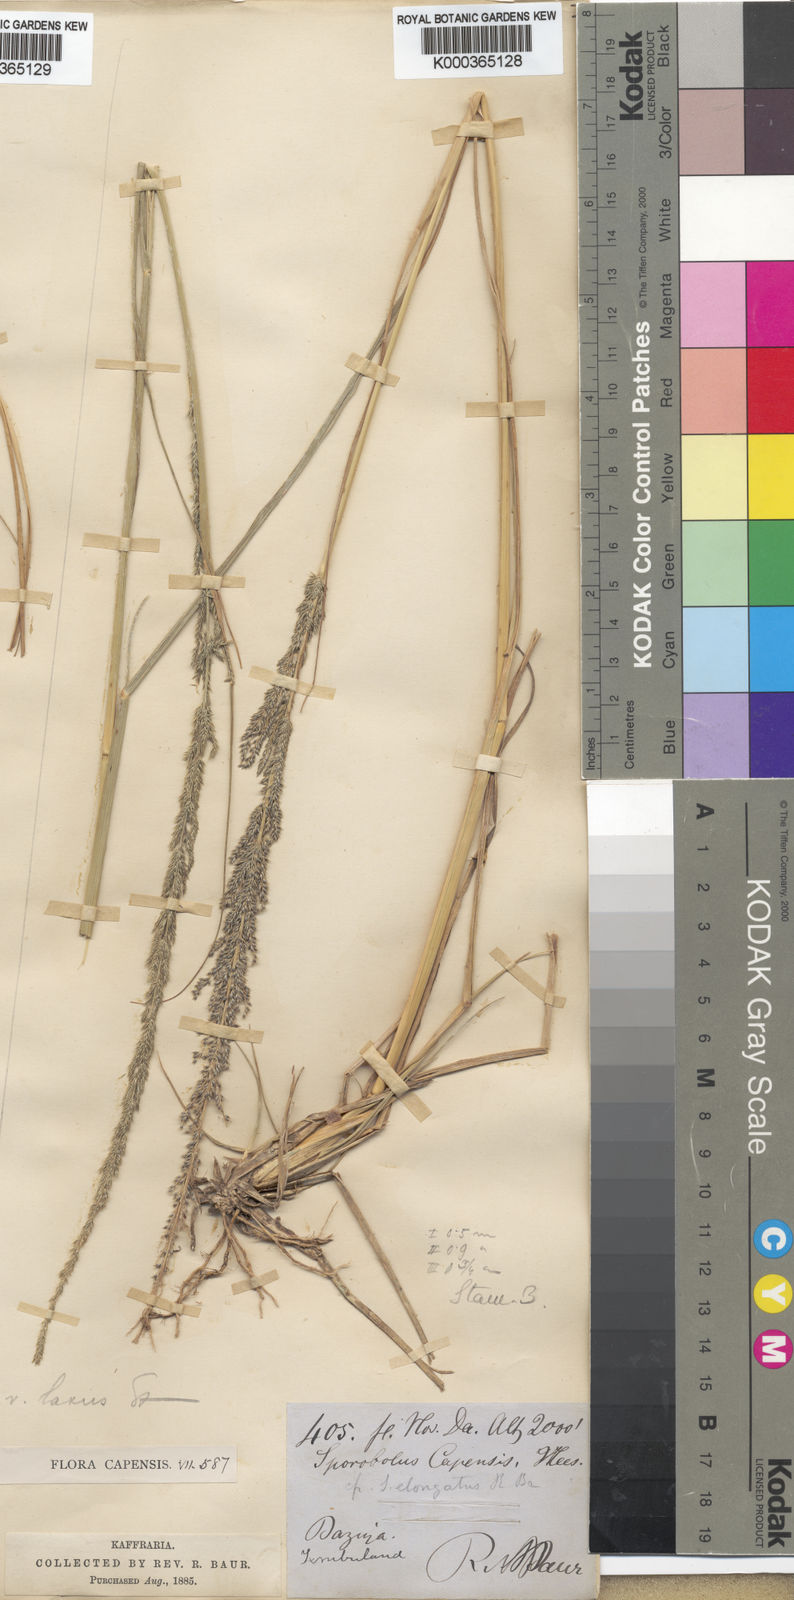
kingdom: Plantae
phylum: Tracheophyta
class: Liliopsida
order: Poales
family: Poaceae
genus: Sporobolus
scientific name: Sporobolus natalensis
